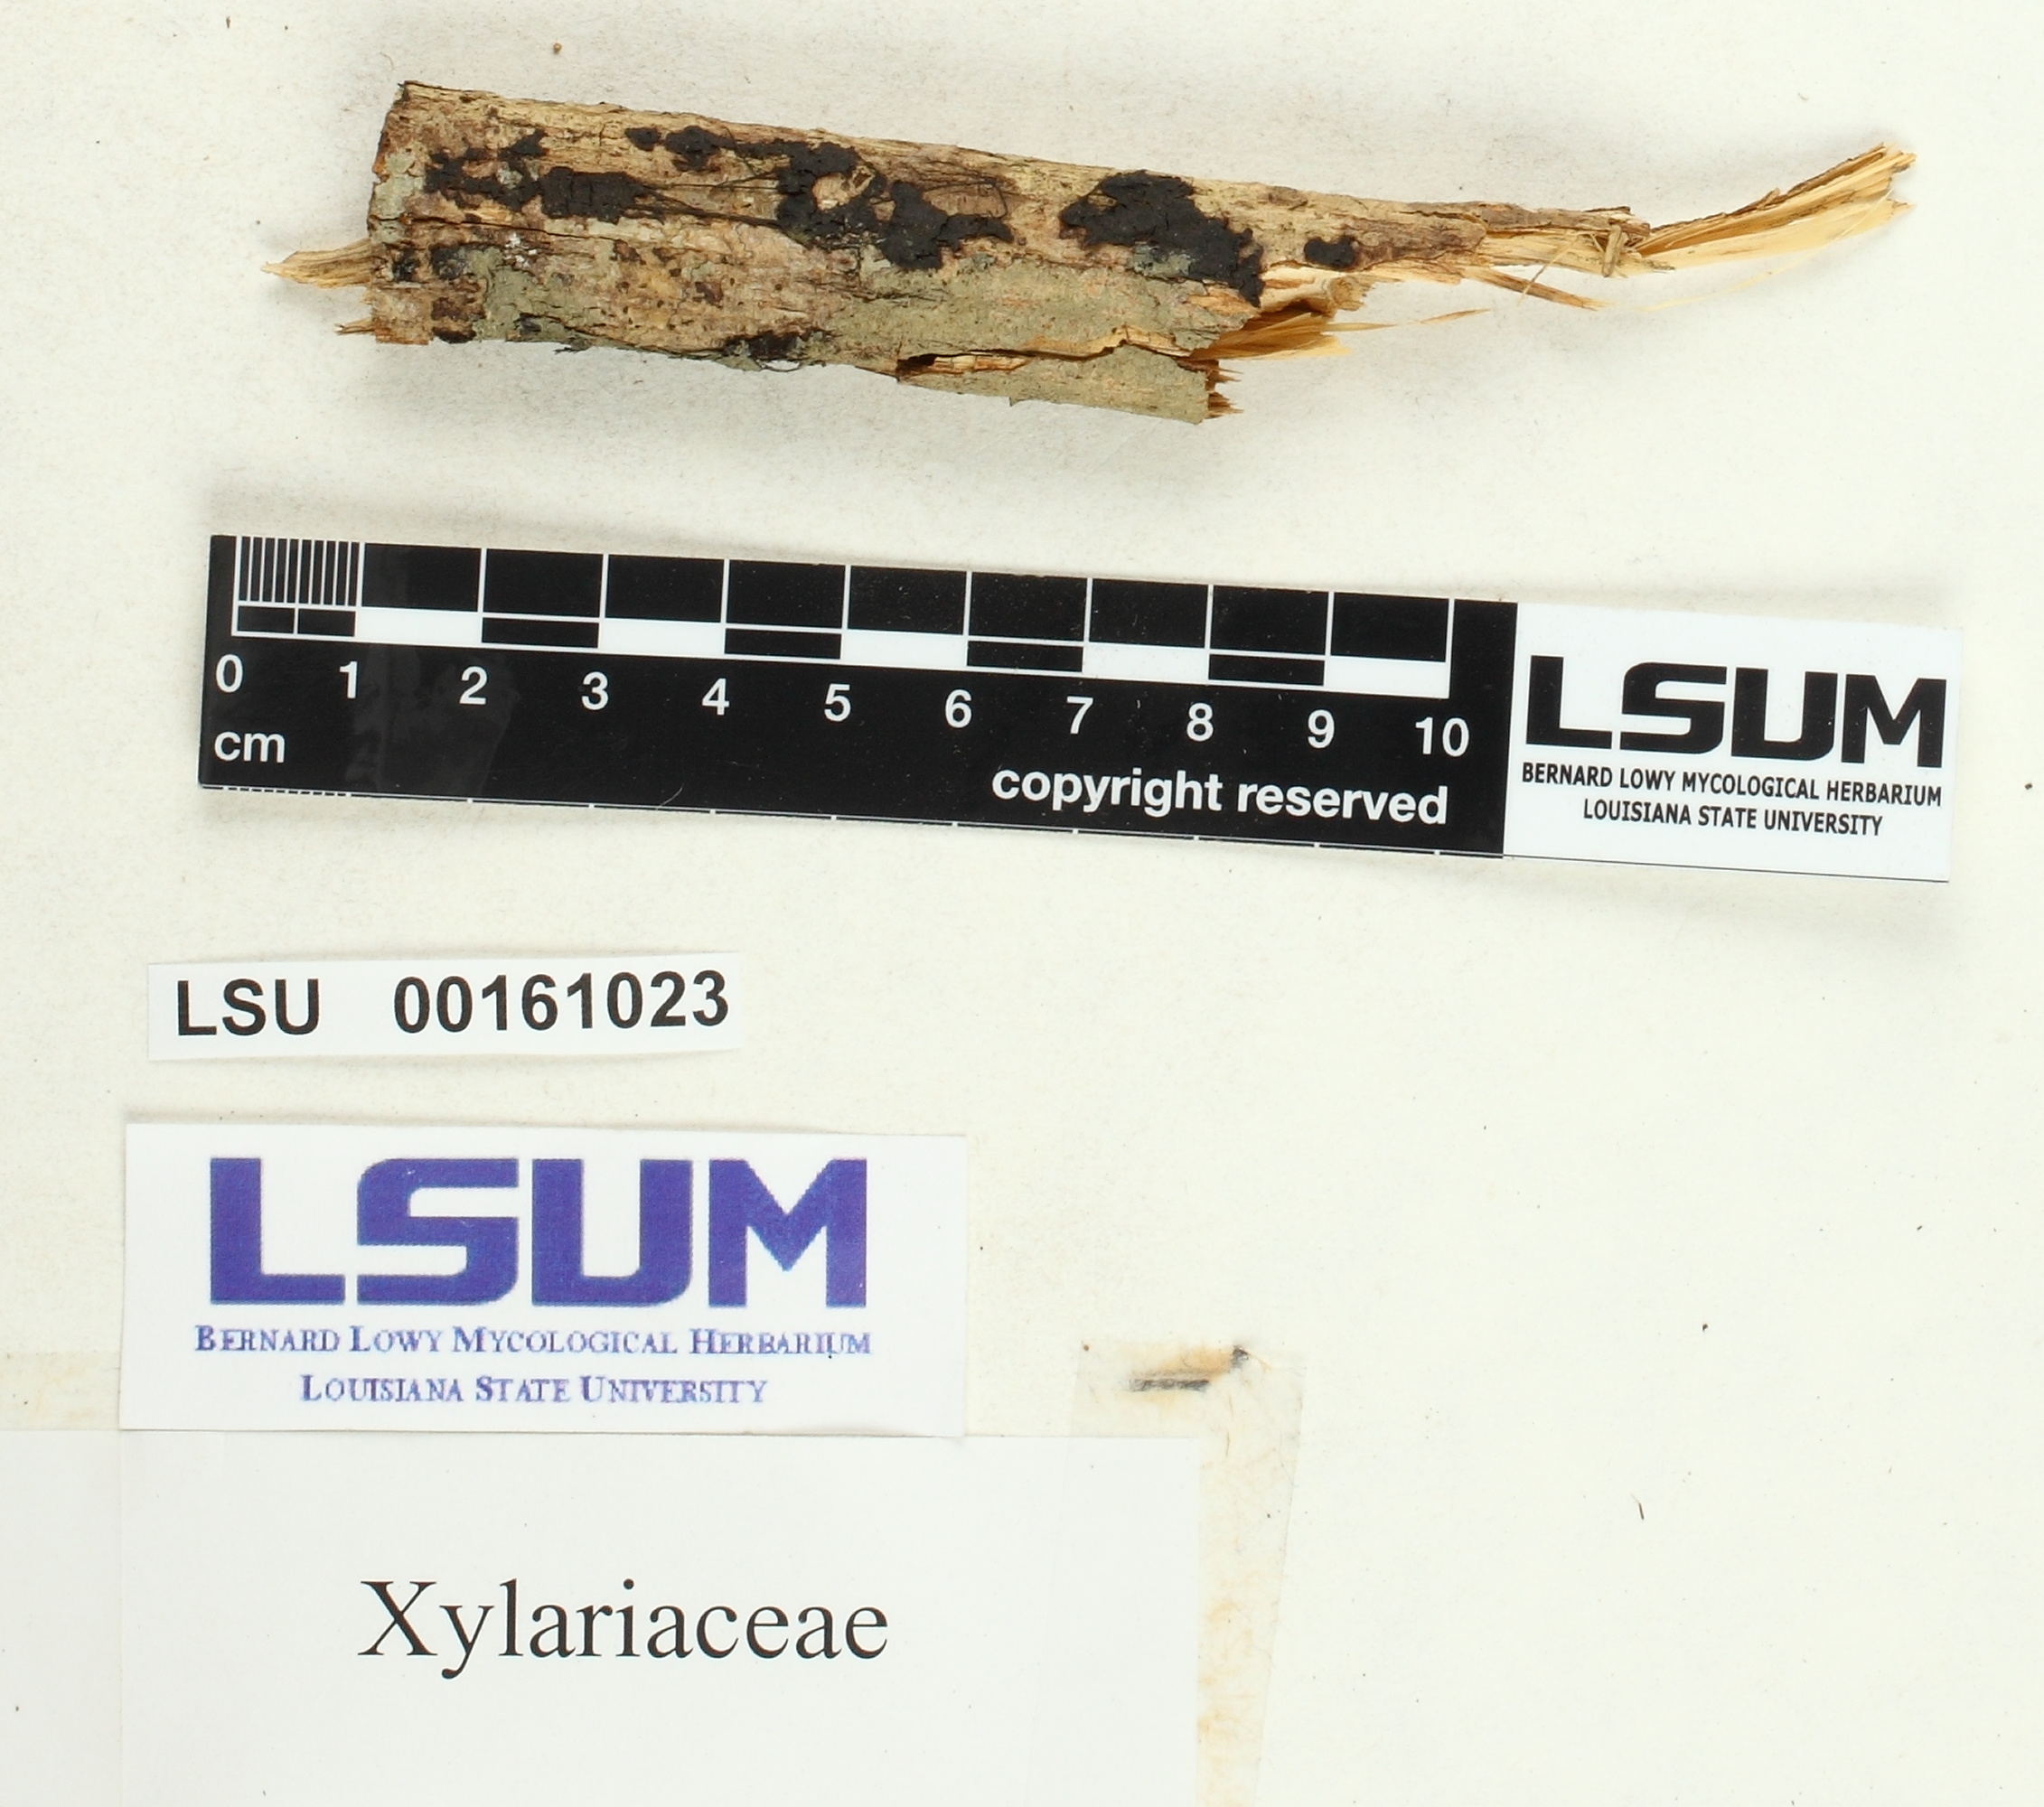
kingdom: Fungi
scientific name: Fungi
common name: Fungi
